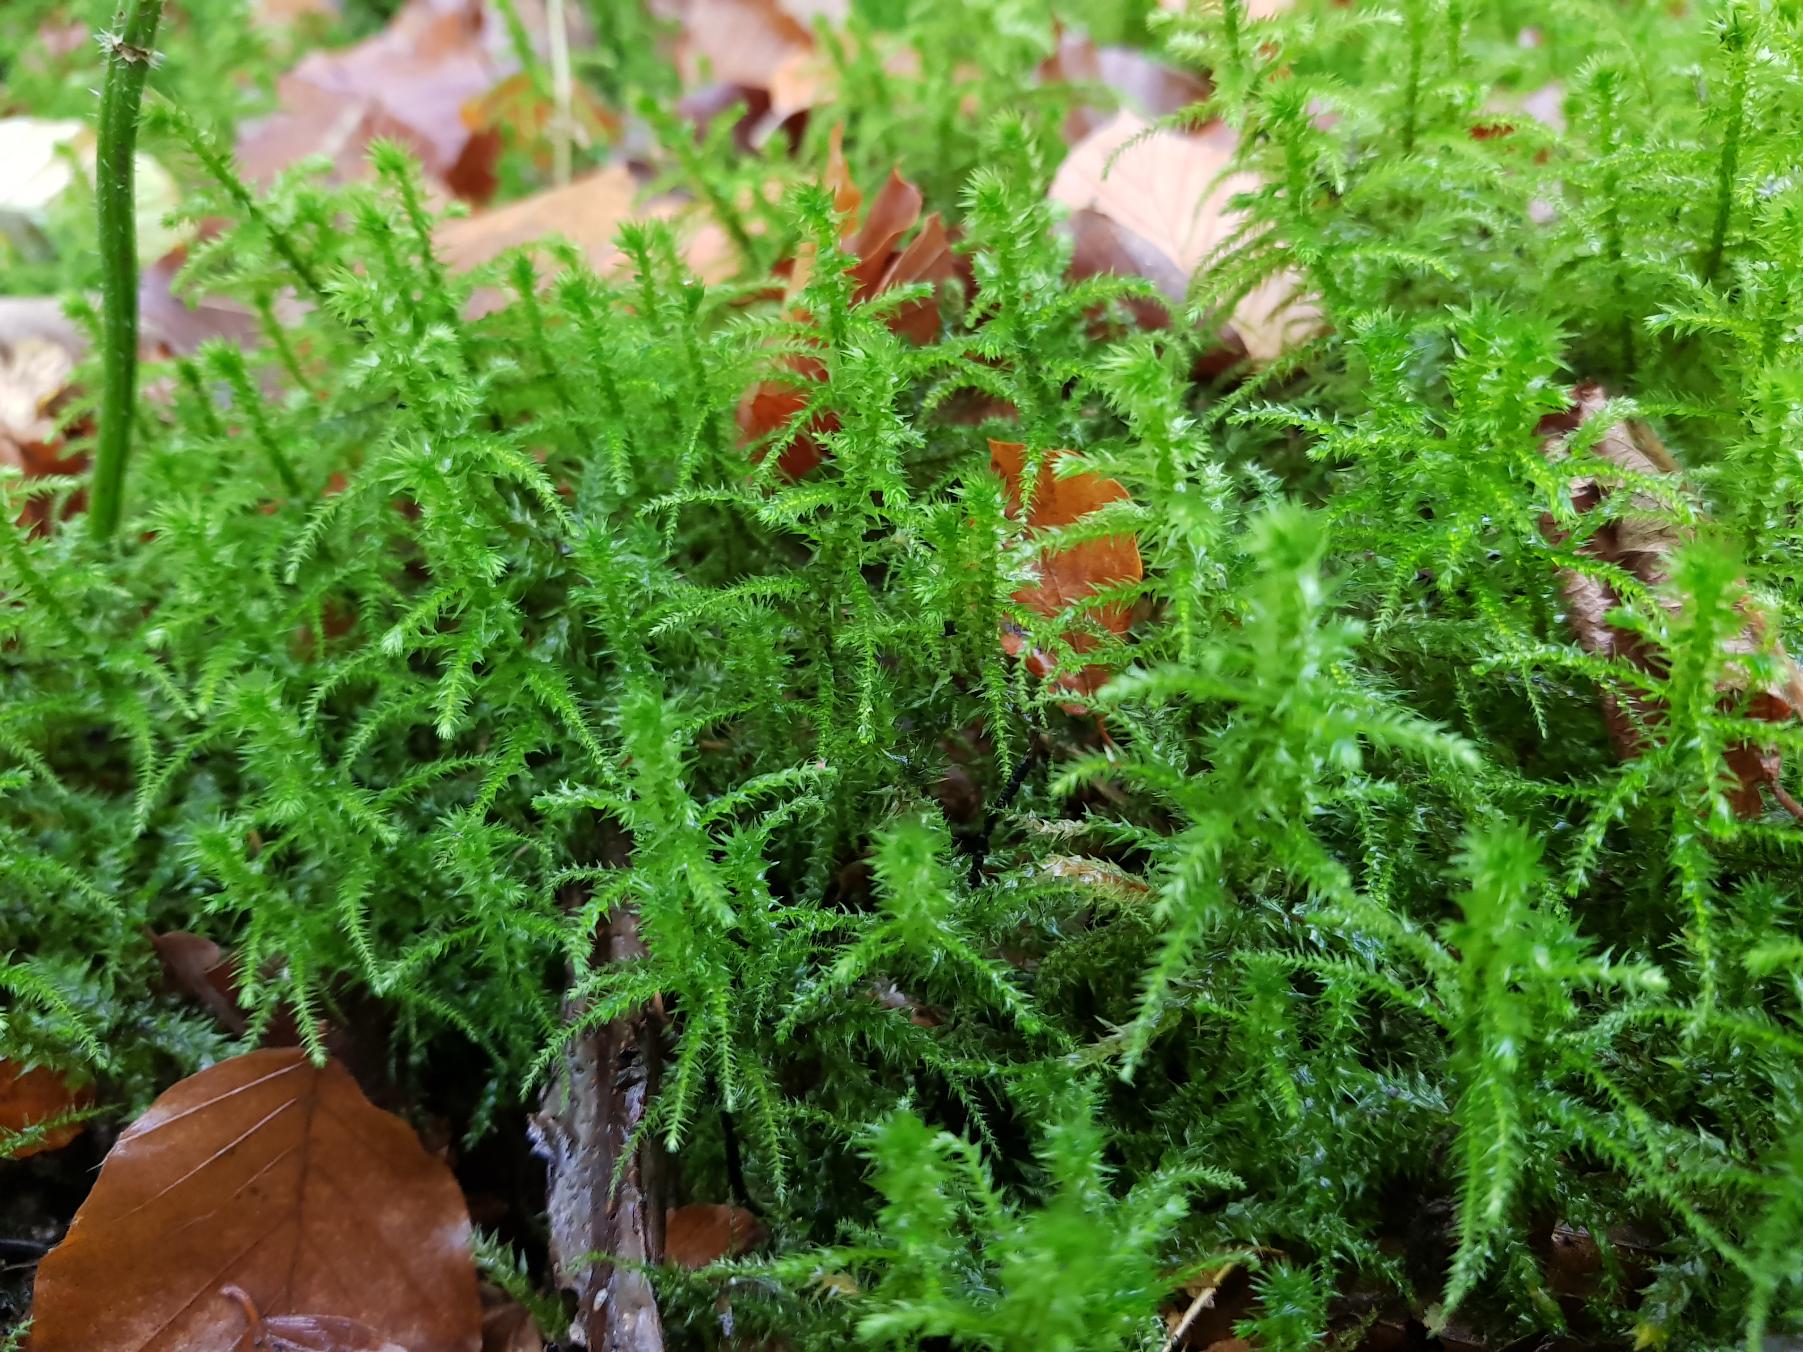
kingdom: Plantae
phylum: Bryophyta
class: Bryopsida
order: Hypnales
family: Hylocomiaceae
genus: Hylocomiadelphus
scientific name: Hylocomiadelphus triquetrus
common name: Stor kransemos
